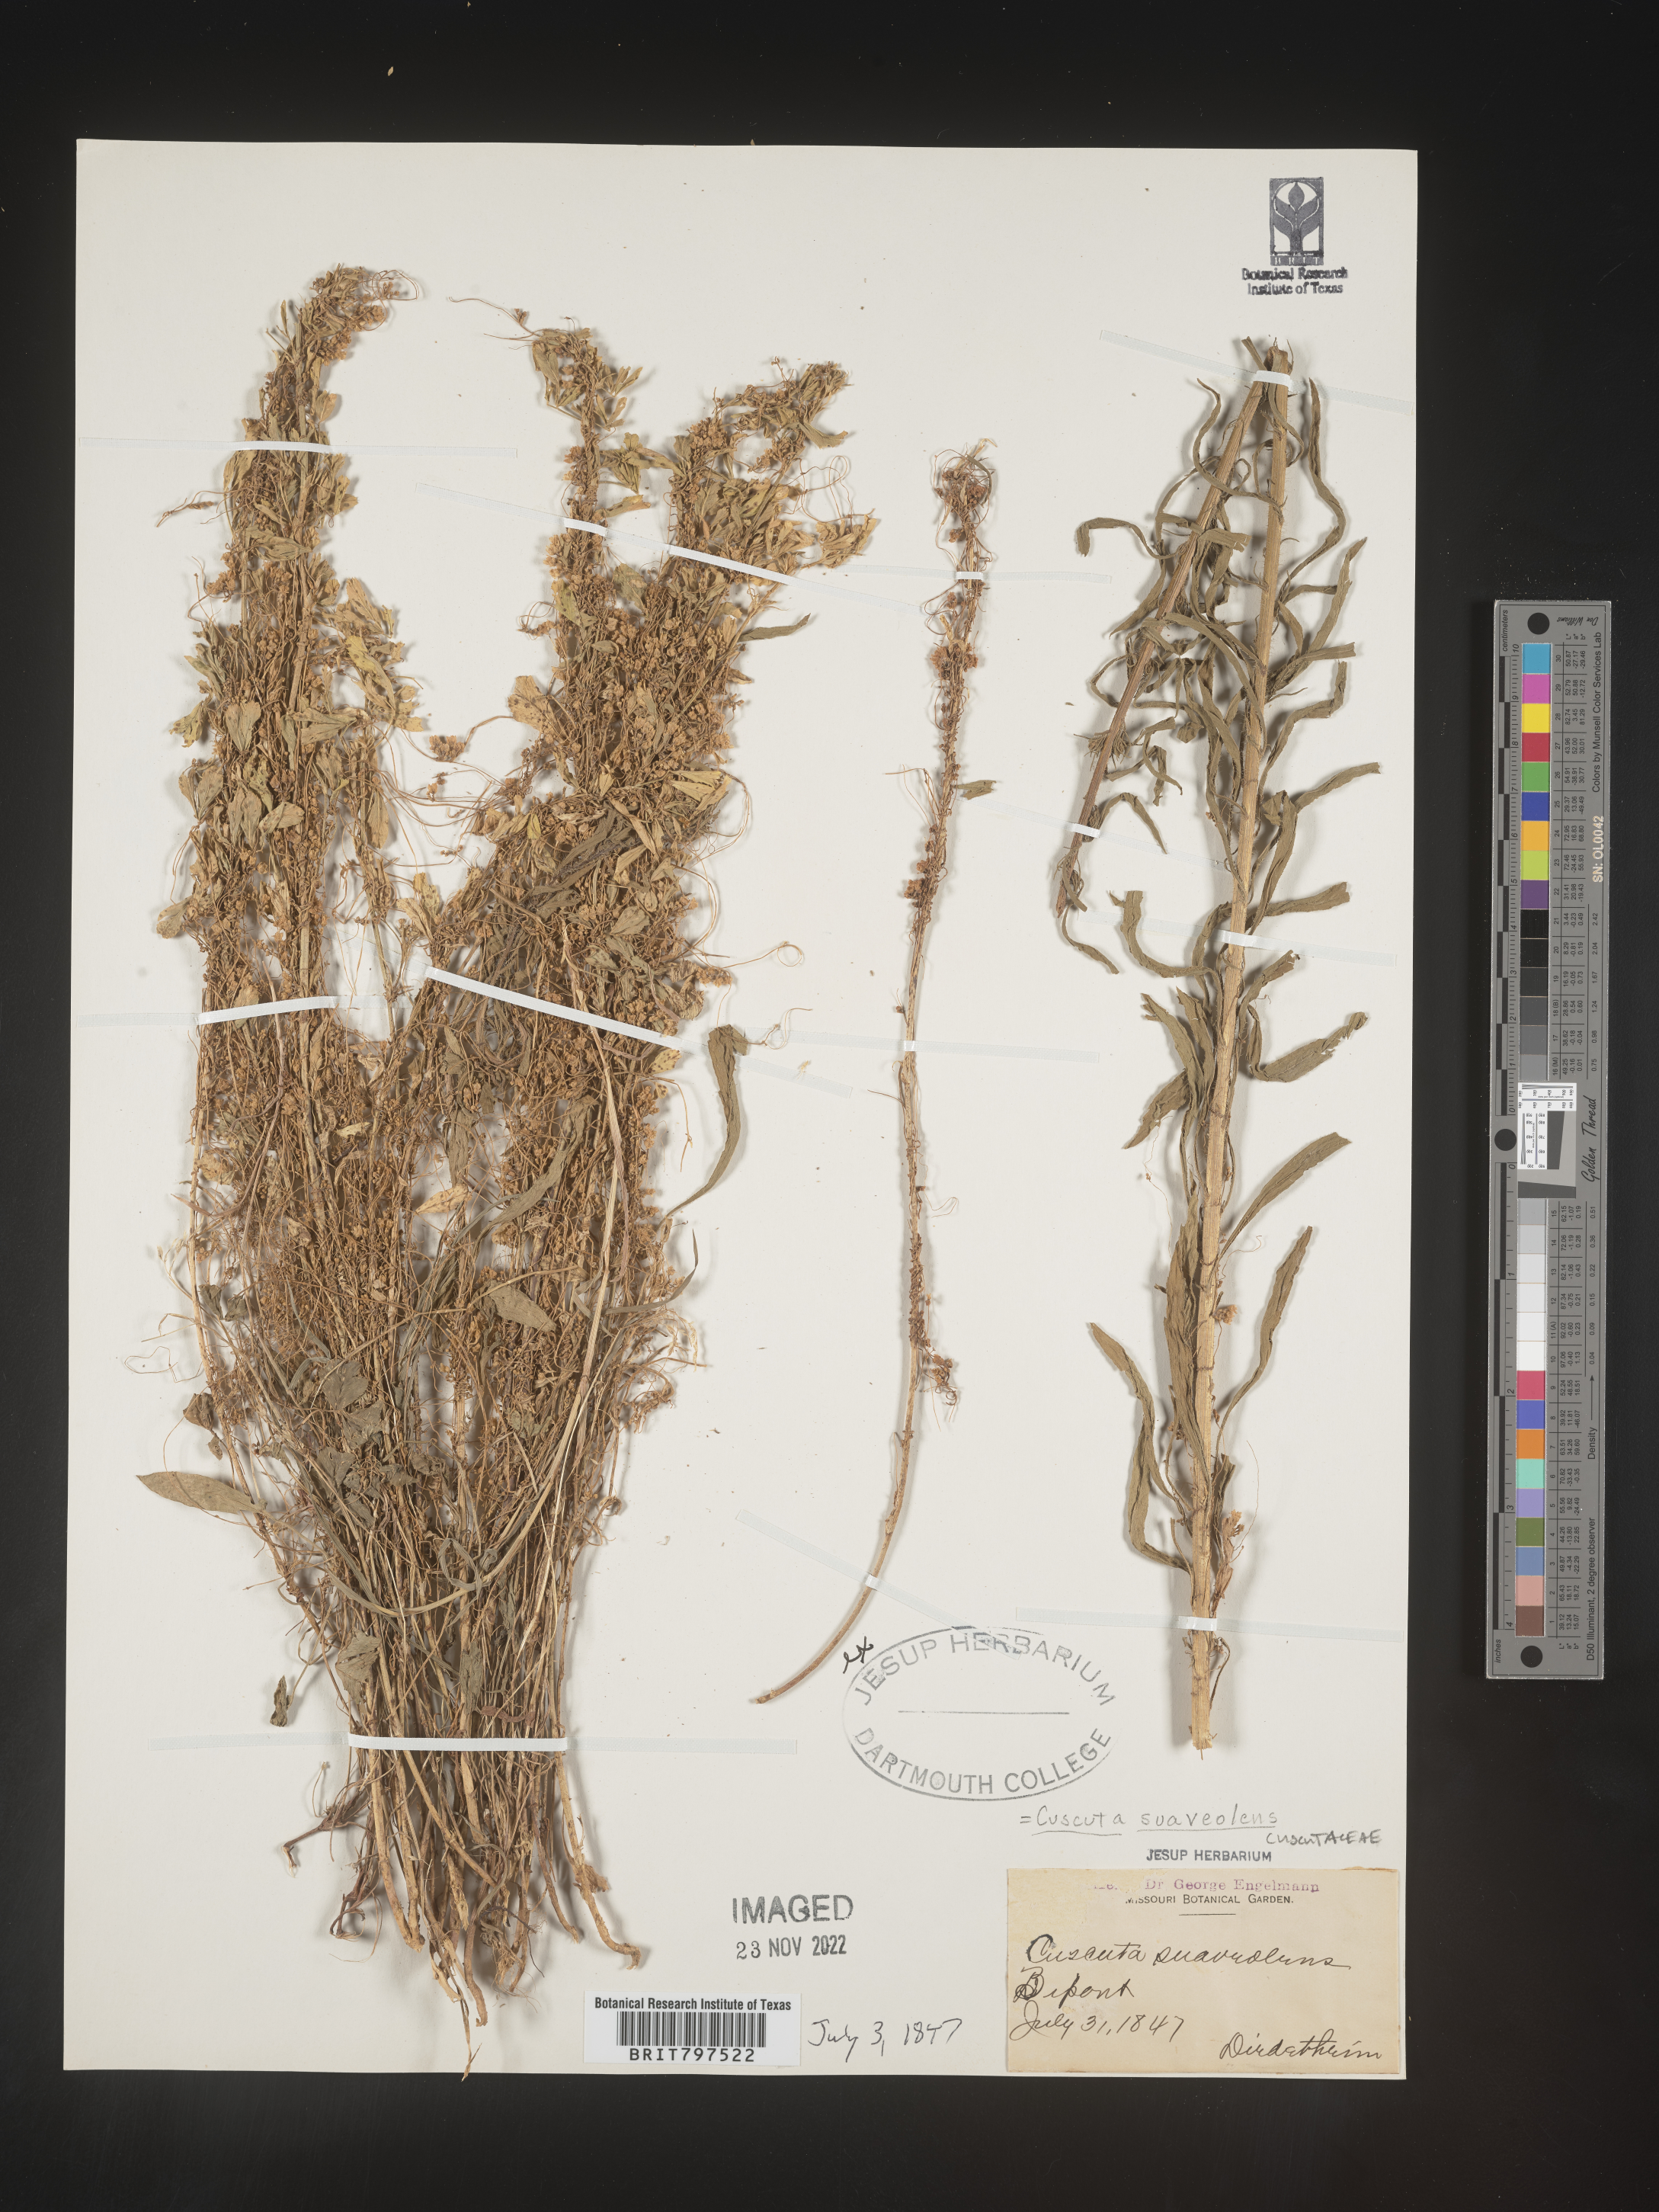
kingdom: Plantae
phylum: Tracheophyta
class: Magnoliopsida
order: Solanales
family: Convolvulaceae
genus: Cuscuta
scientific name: Cuscuta suaveolens
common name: Fringed dodder
